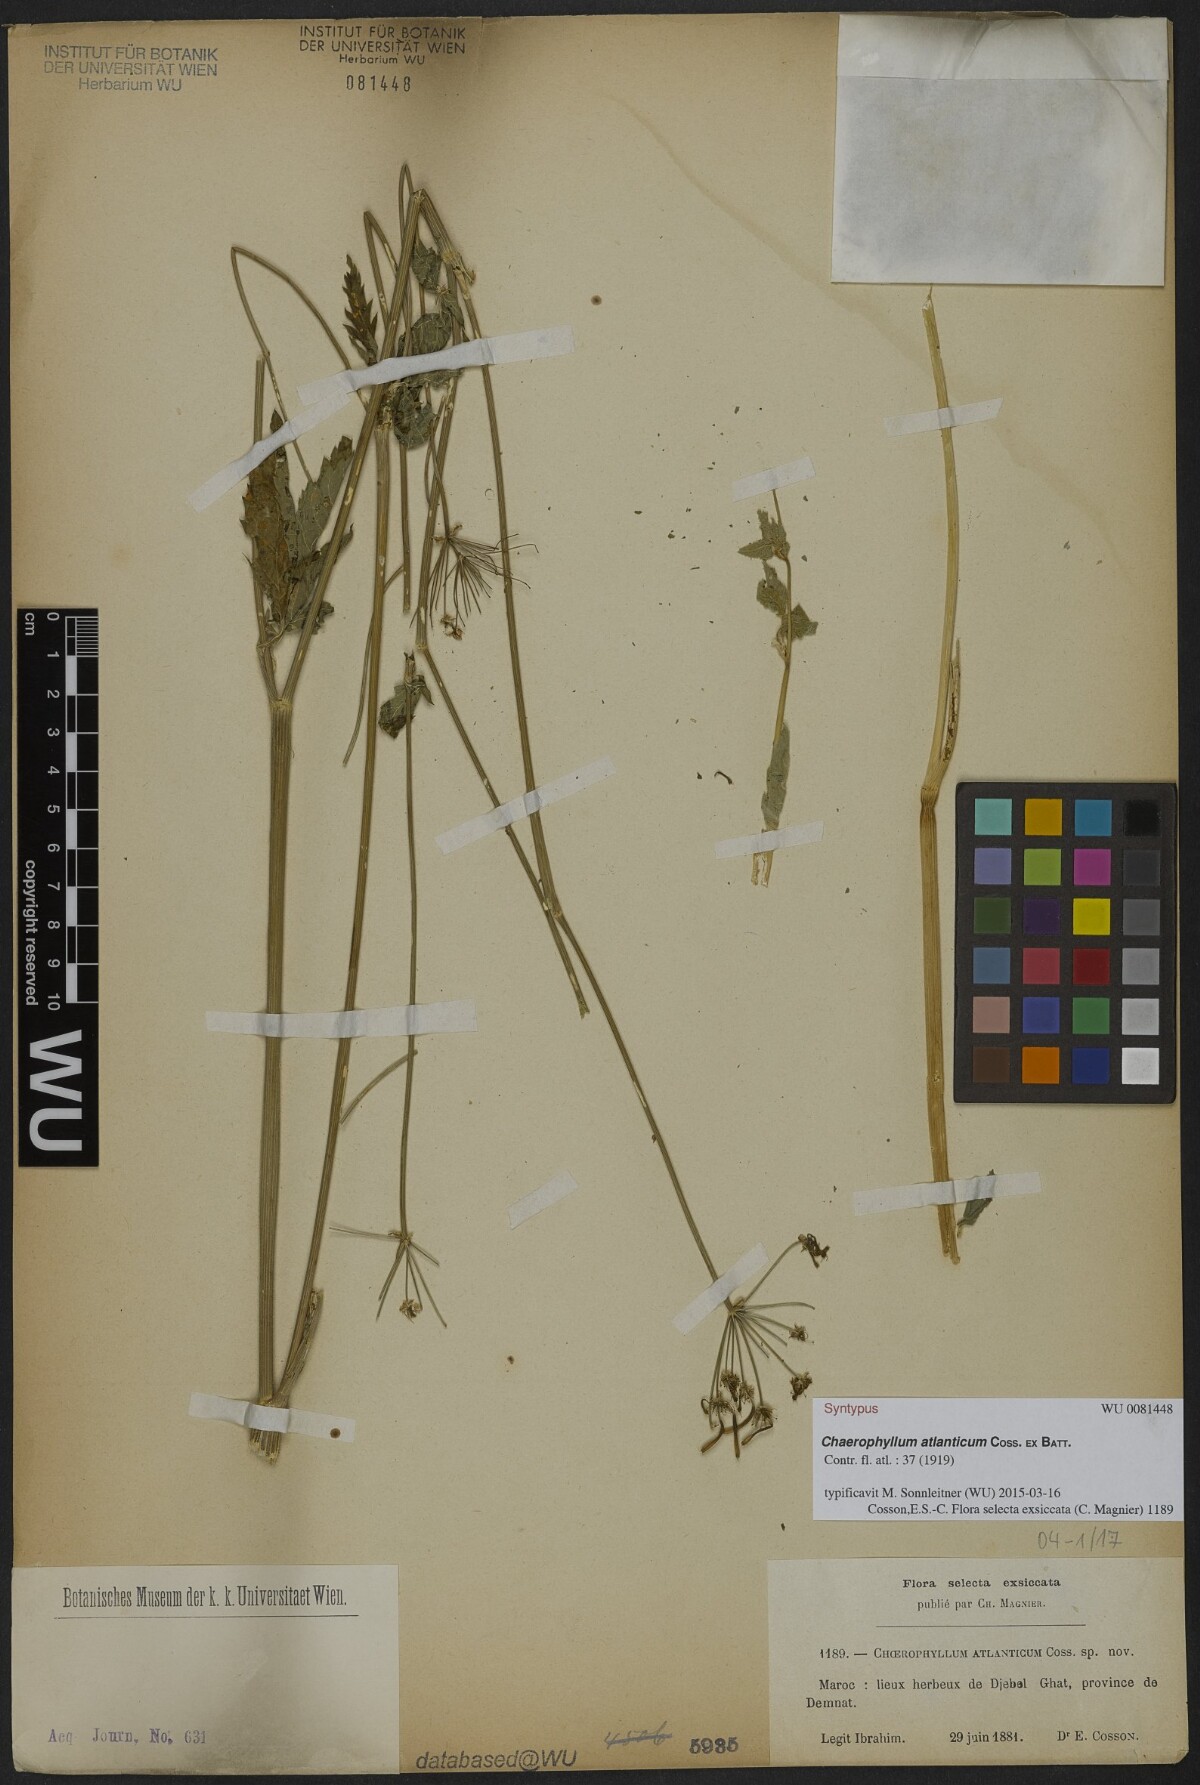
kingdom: Plantae
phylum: Tracheophyta
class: Magnoliopsida
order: Apiales
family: Apiaceae
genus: Chaerophyllum
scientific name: Chaerophyllum atlanticum
